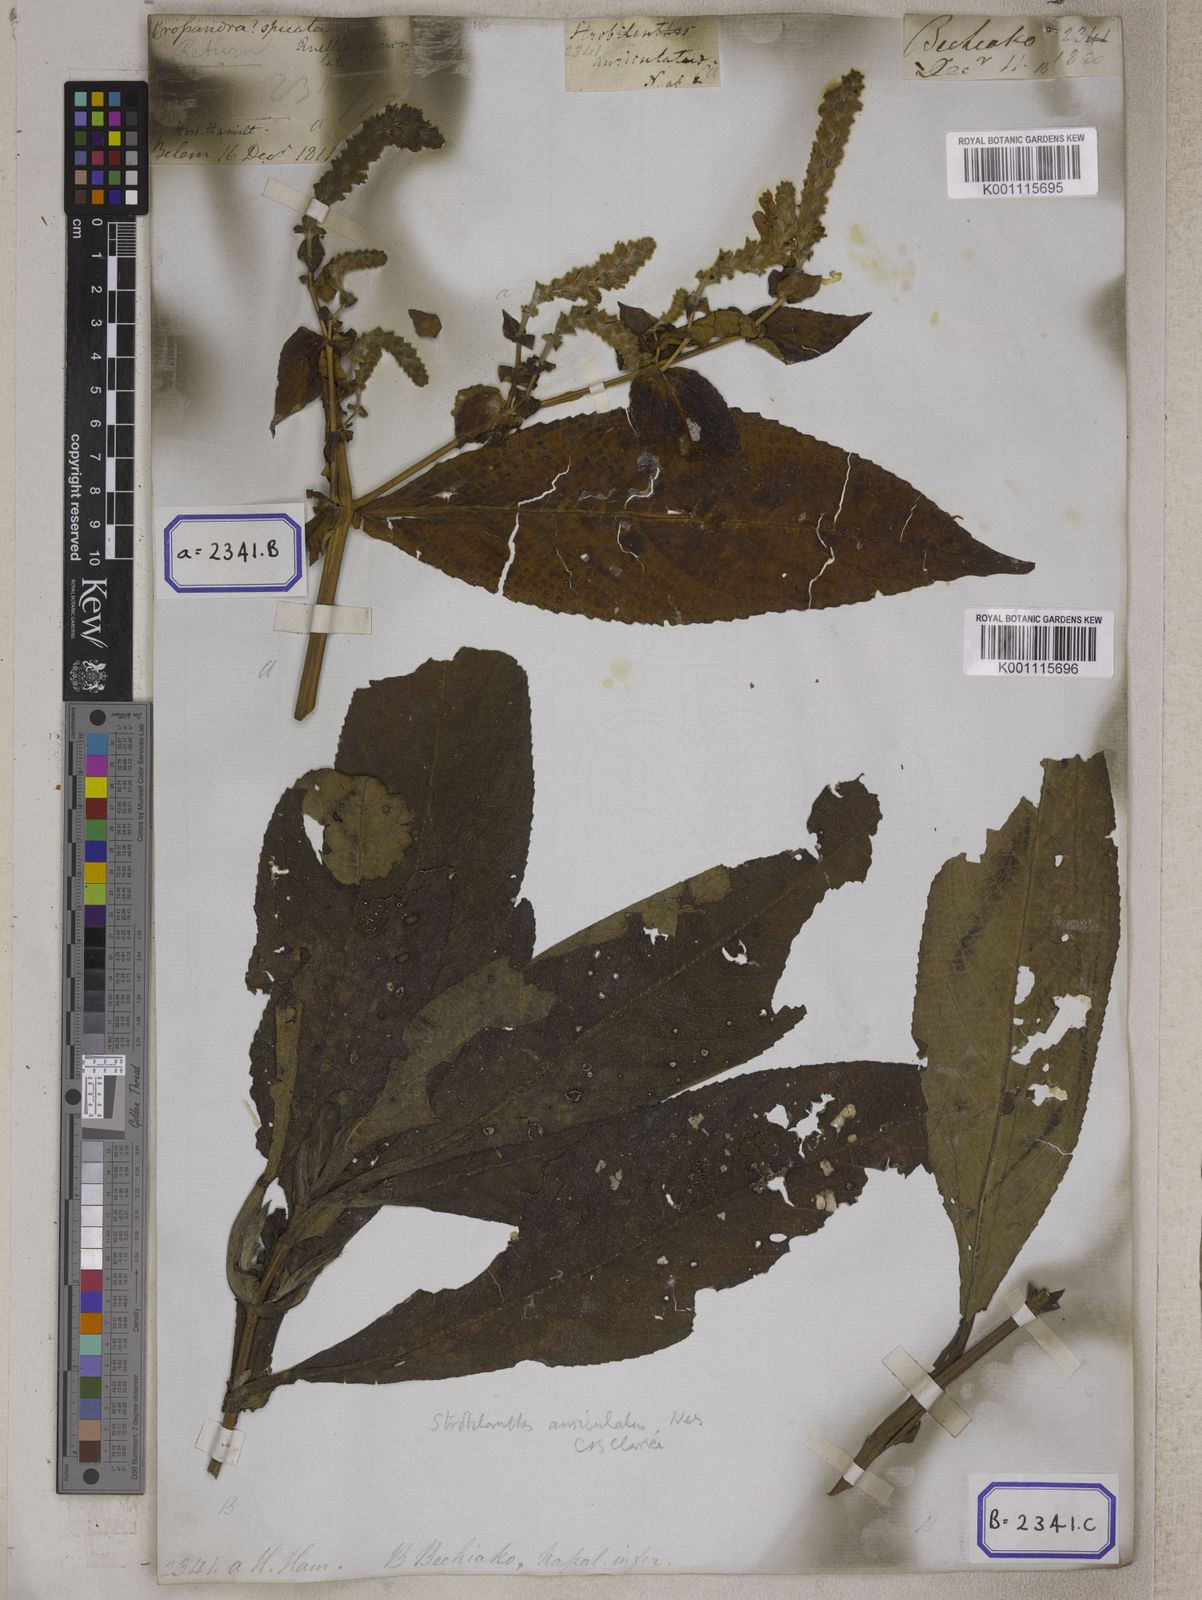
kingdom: Plantae
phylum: Tracheophyta
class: Magnoliopsida
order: Lamiales
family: Acanthaceae
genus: Mackaya
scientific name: Mackaya neesiana
